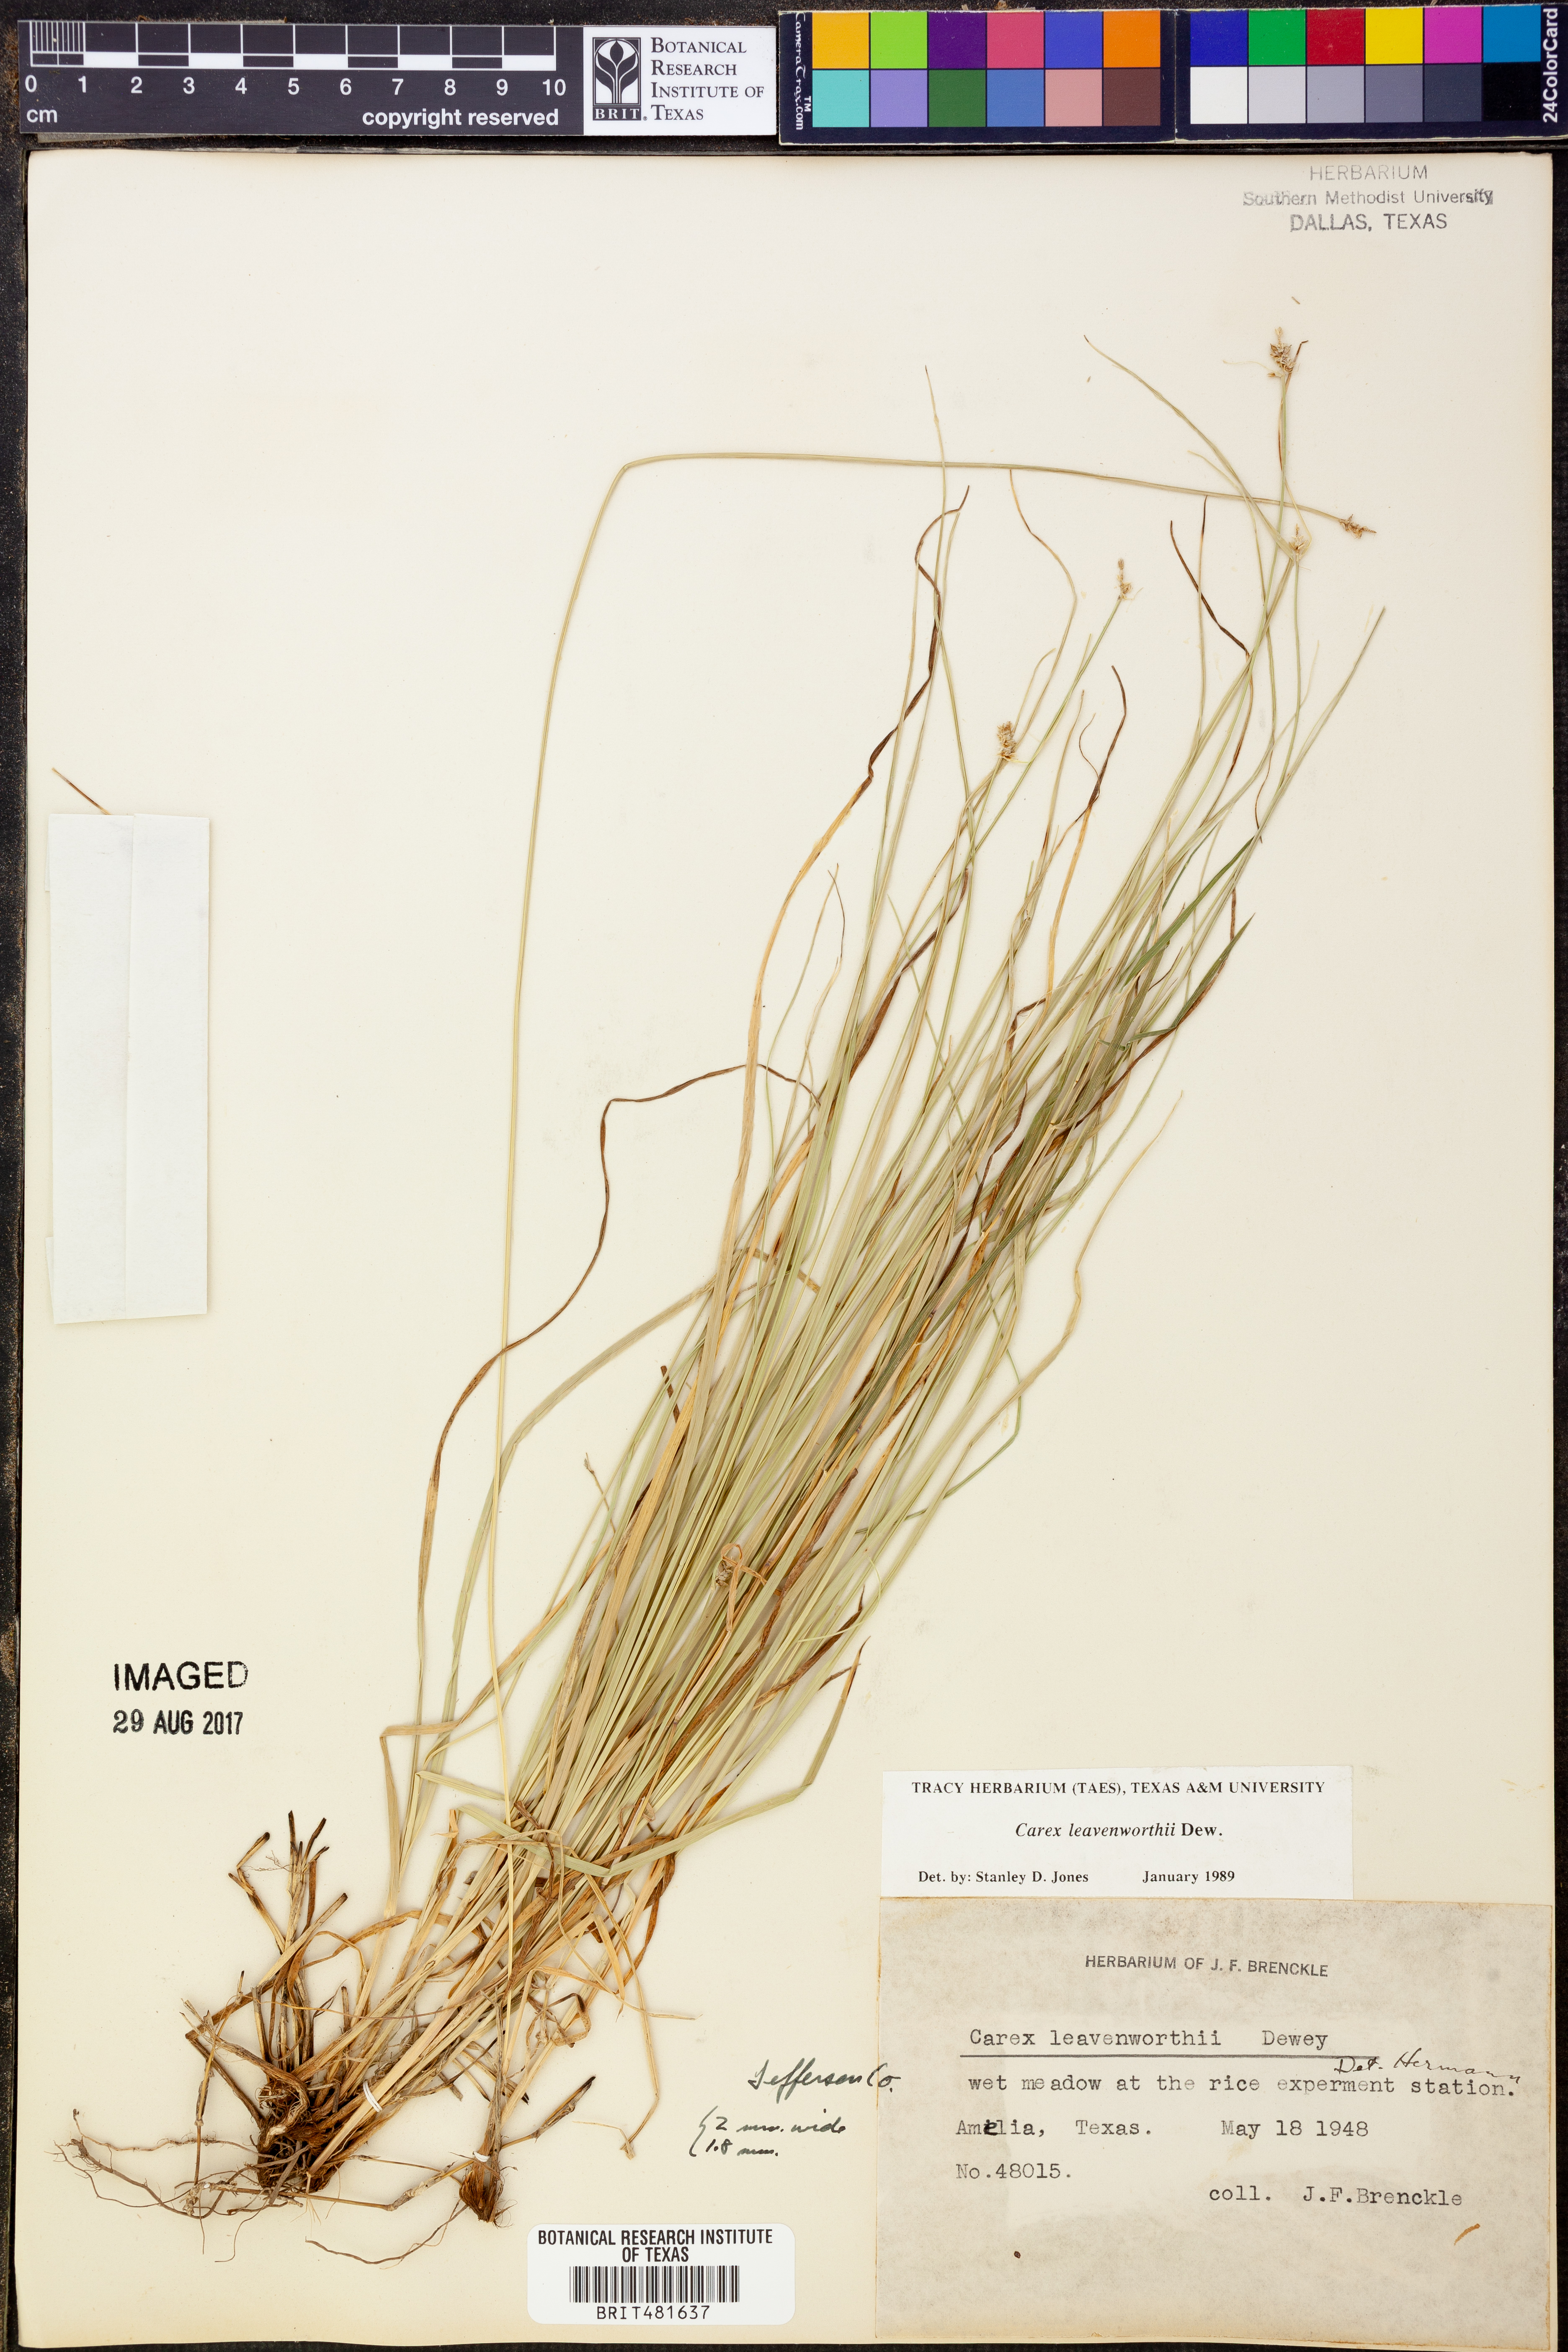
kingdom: Plantae
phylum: Tracheophyta
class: Liliopsida
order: Poales
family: Cyperaceae
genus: Carex
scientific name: Carex leavenworthii
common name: Leavenworth's bracted sedge
